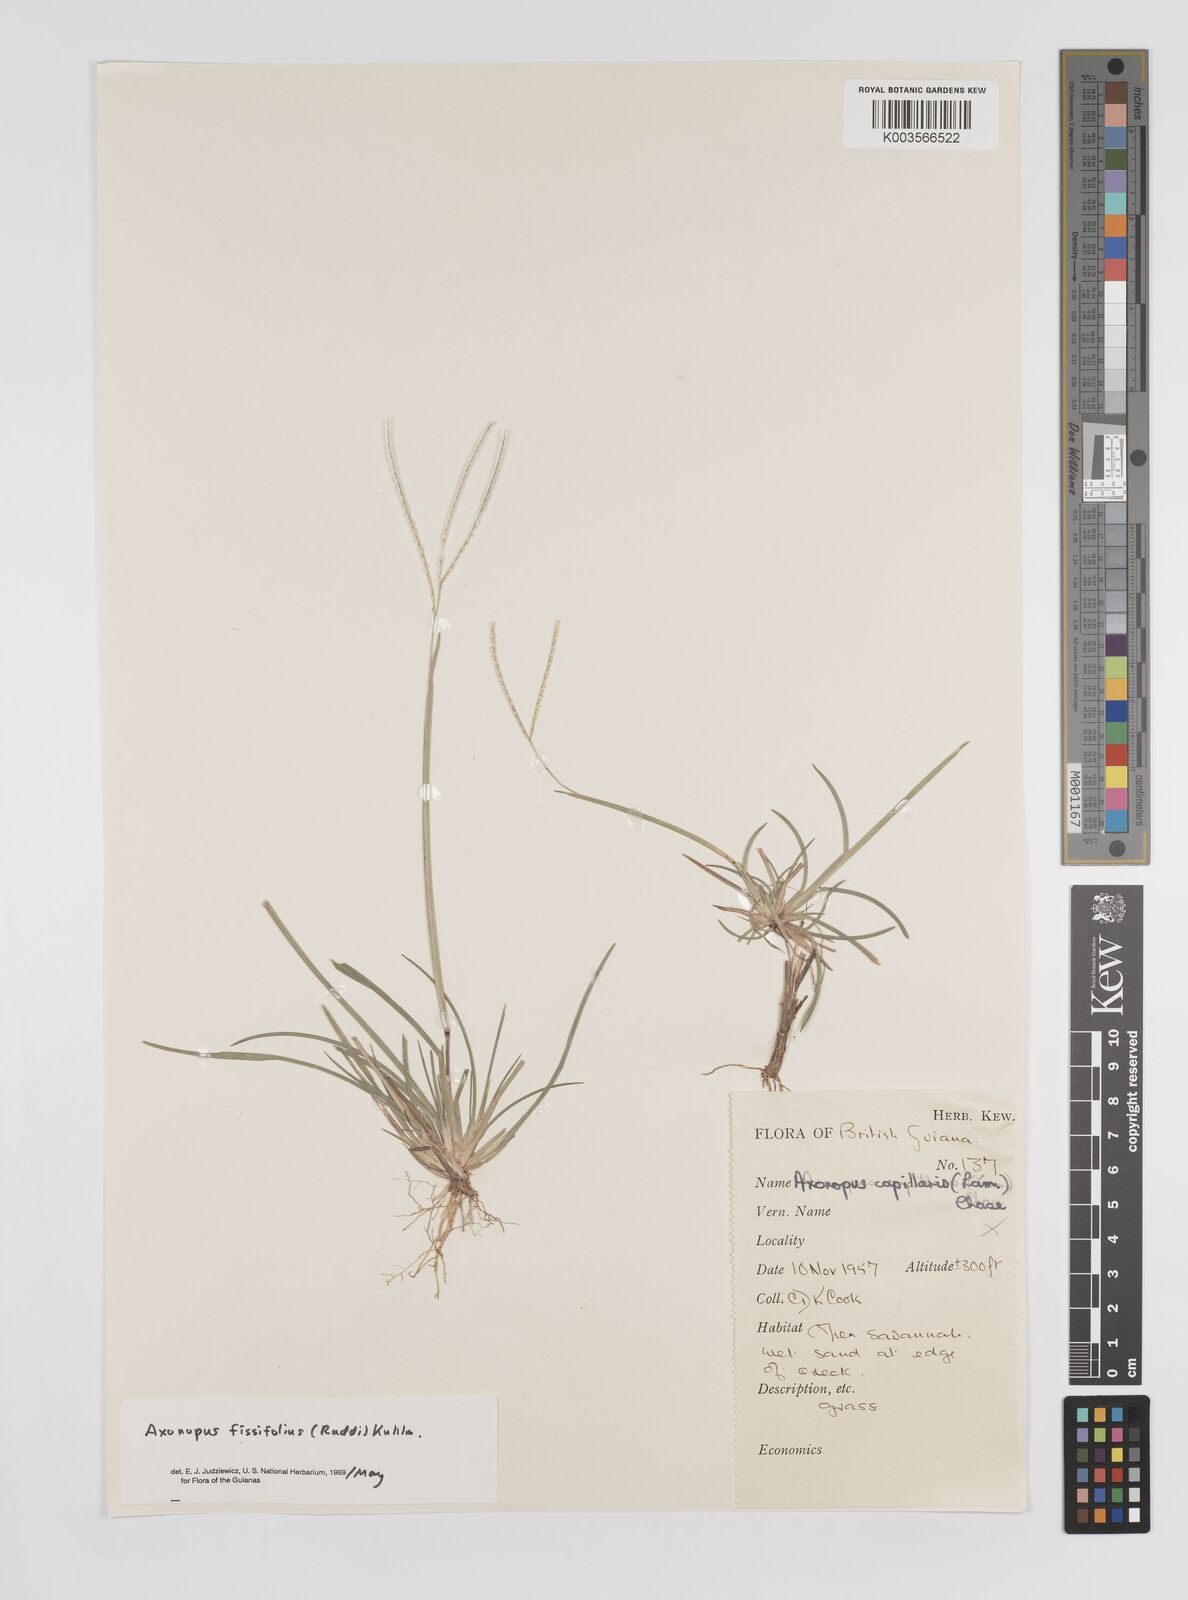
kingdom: Plantae
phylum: Tracheophyta
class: Liliopsida
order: Poales
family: Poaceae
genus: Axonopus
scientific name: Axonopus fissifolius
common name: Common carpetgrass
